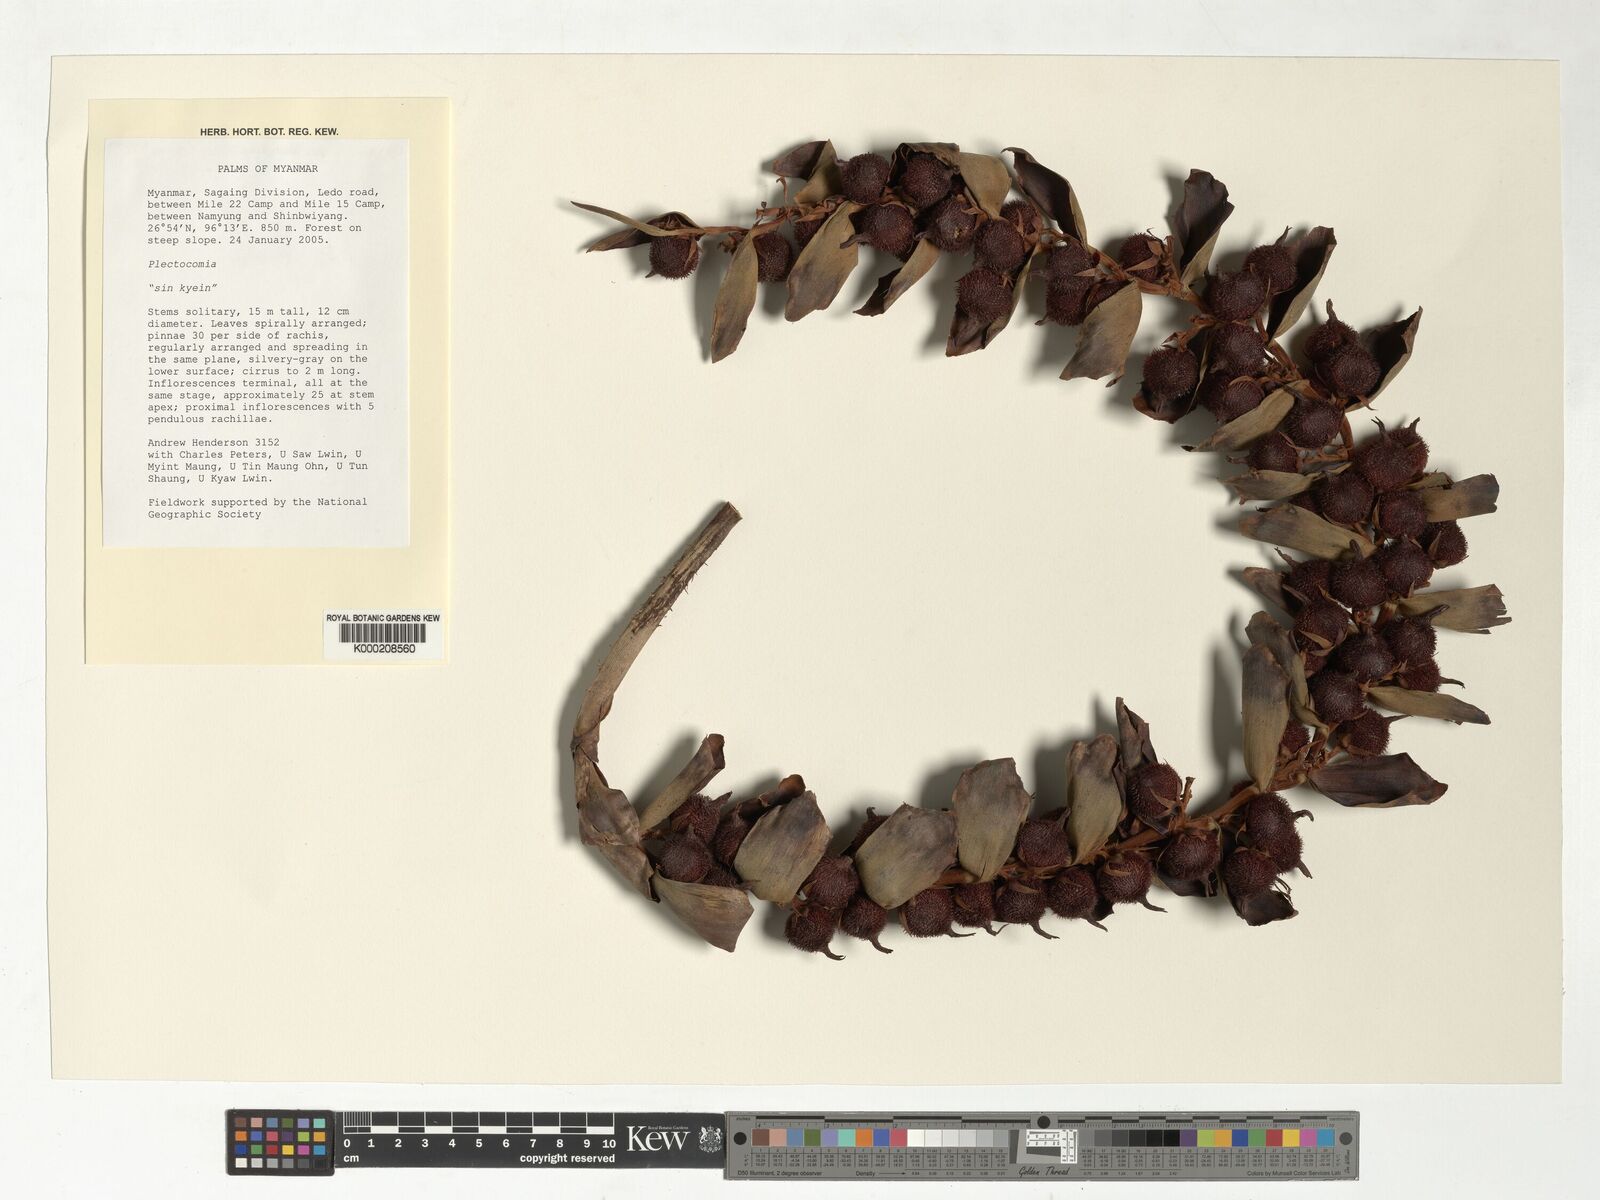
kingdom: Plantae
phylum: Tracheophyta
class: Liliopsida
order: Arecales
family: Arecaceae
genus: Plectocomia
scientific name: Plectocomia
